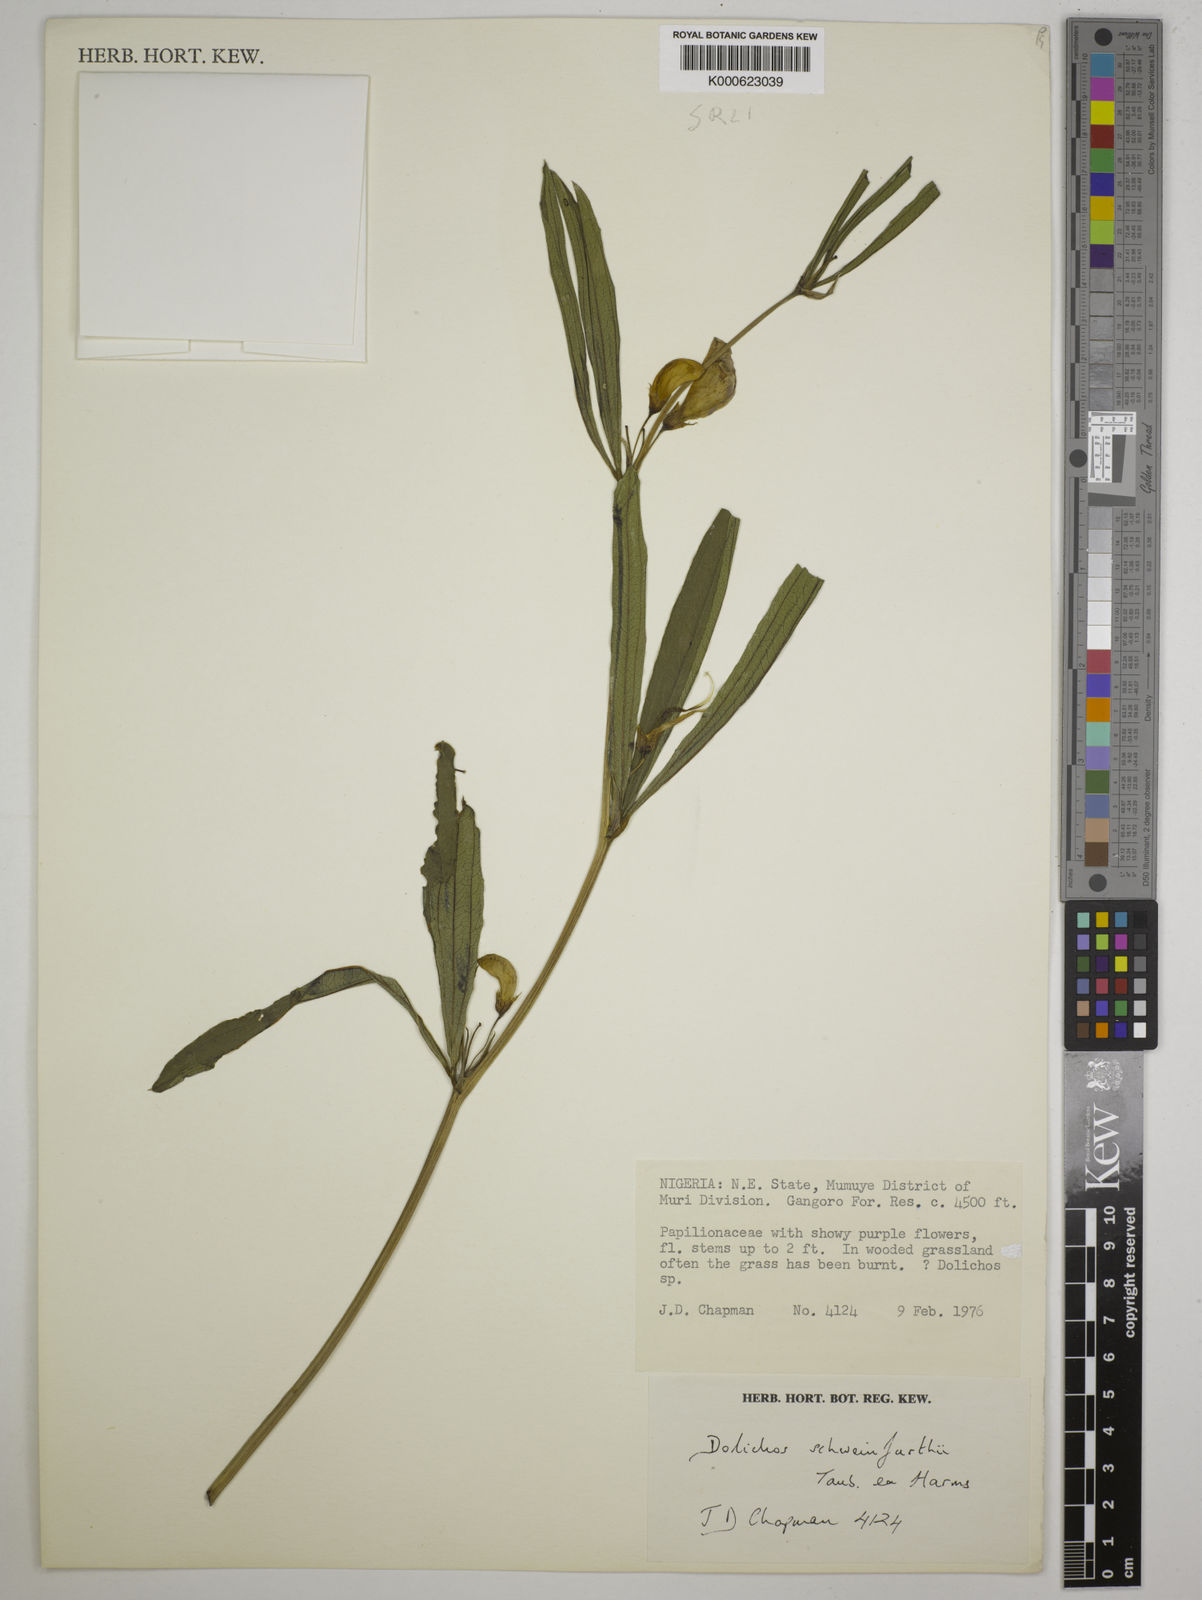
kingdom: Plantae
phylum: Tracheophyta
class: Magnoliopsida
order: Fabales
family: Fabaceae
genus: Dolichos
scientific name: Dolichos
